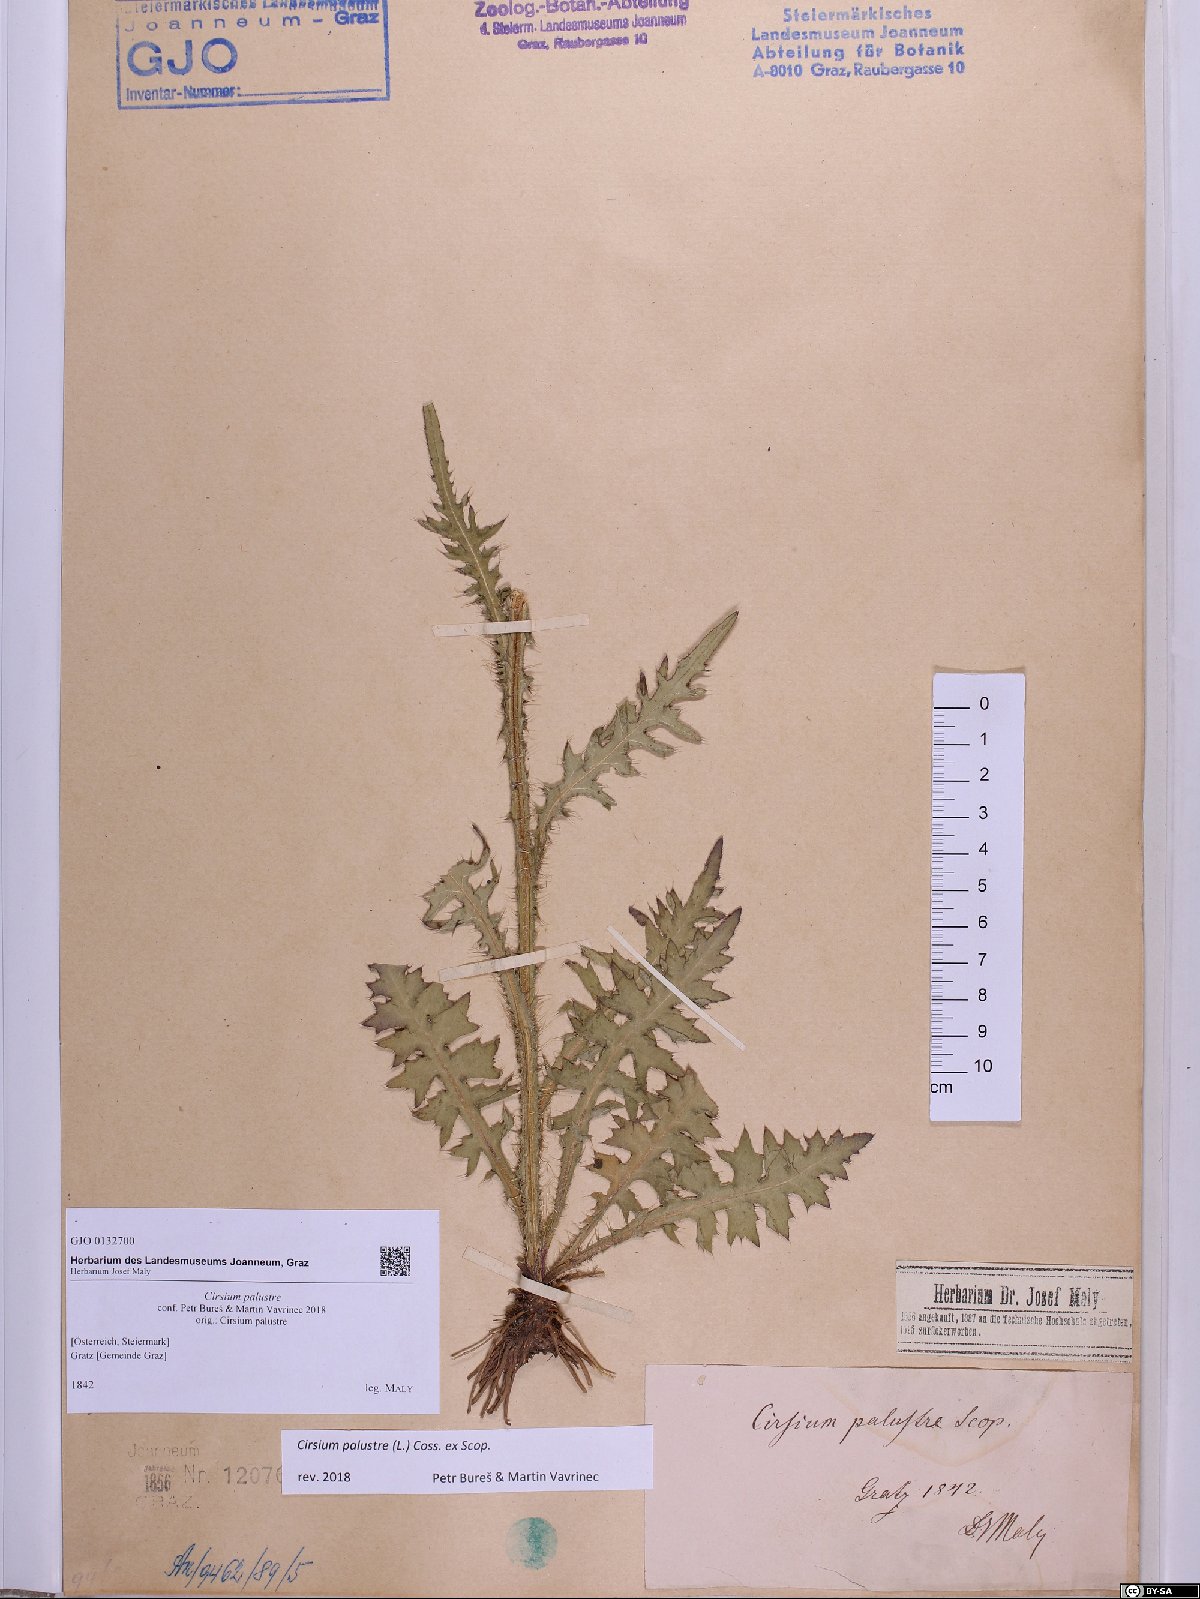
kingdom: Plantae
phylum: Tracheophyta
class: Magnoliopsida
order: Asterales
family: Asteraceae
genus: Cirsium
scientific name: Cirsium palustre
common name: Marsh thistle
